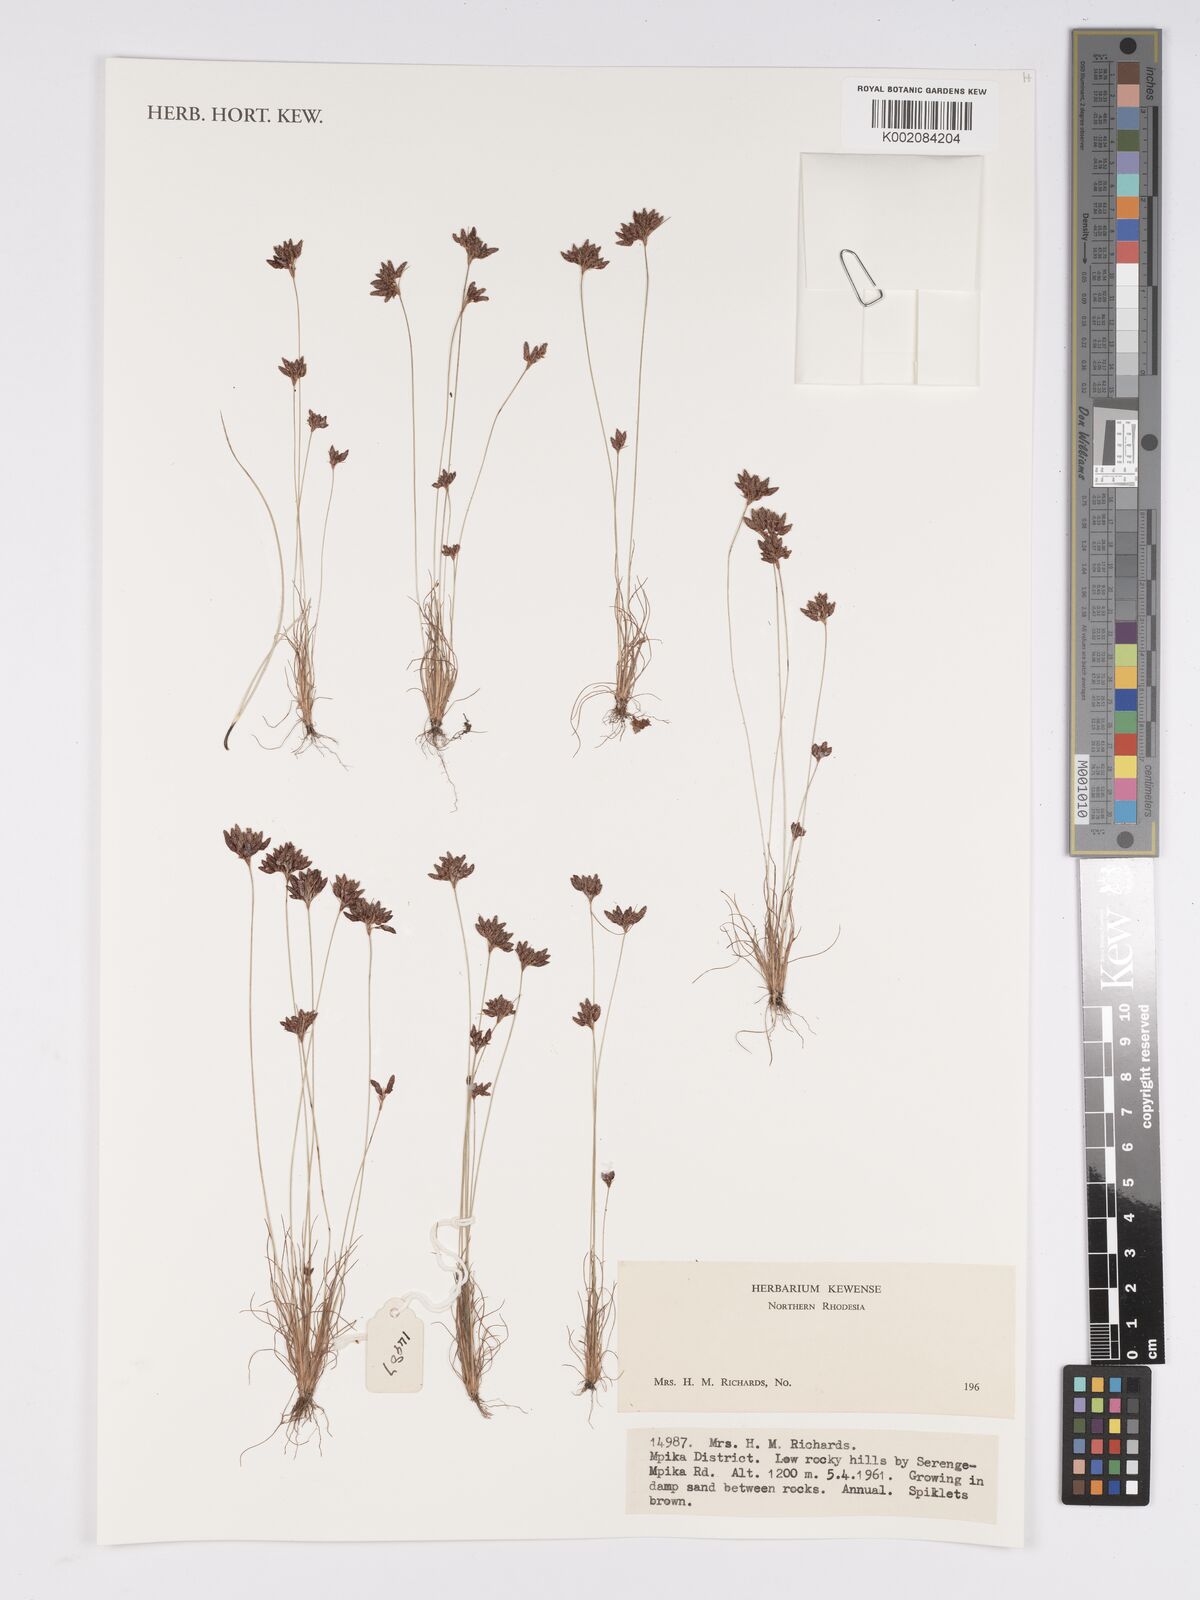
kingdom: Plantae
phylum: Tracheophyta
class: Liliopsida
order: Poales
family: Cyperaceae
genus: Bulbostylis
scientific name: Bulbostylis
